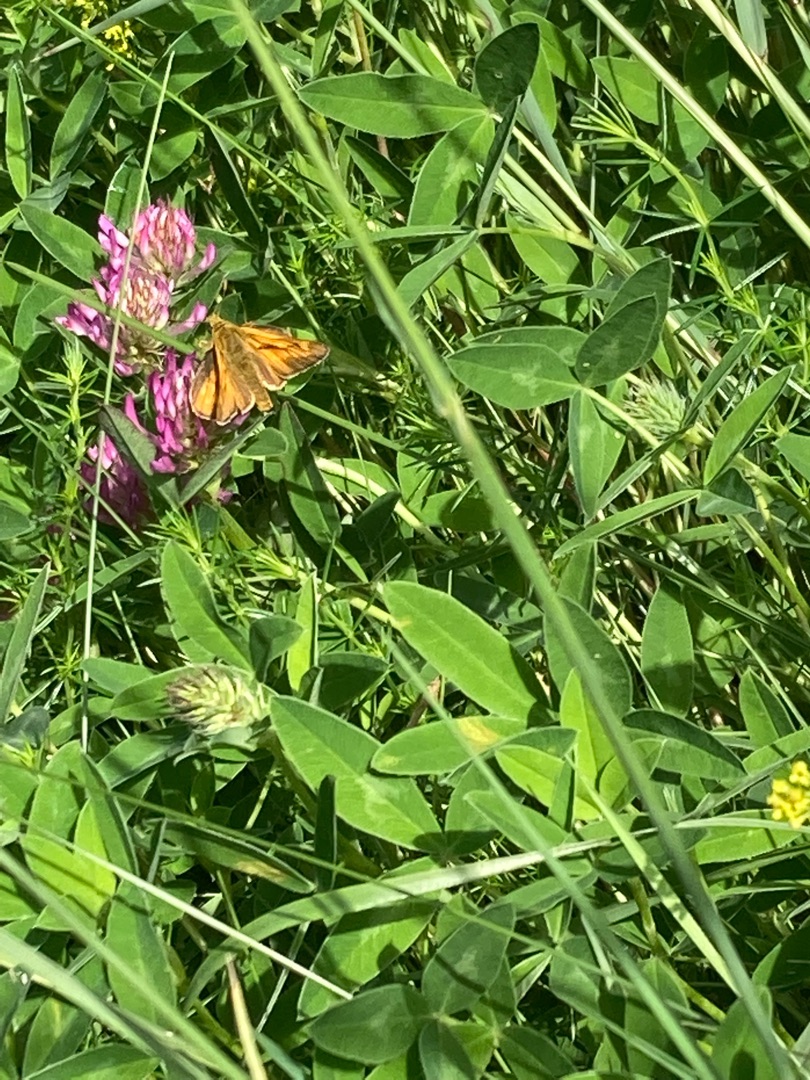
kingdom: Animalia
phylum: Arthropoda
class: Insecta
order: Lepidoptera
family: Hesperiidae
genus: Ochlodes
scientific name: Ochlodes venata
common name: Stor bredpande
